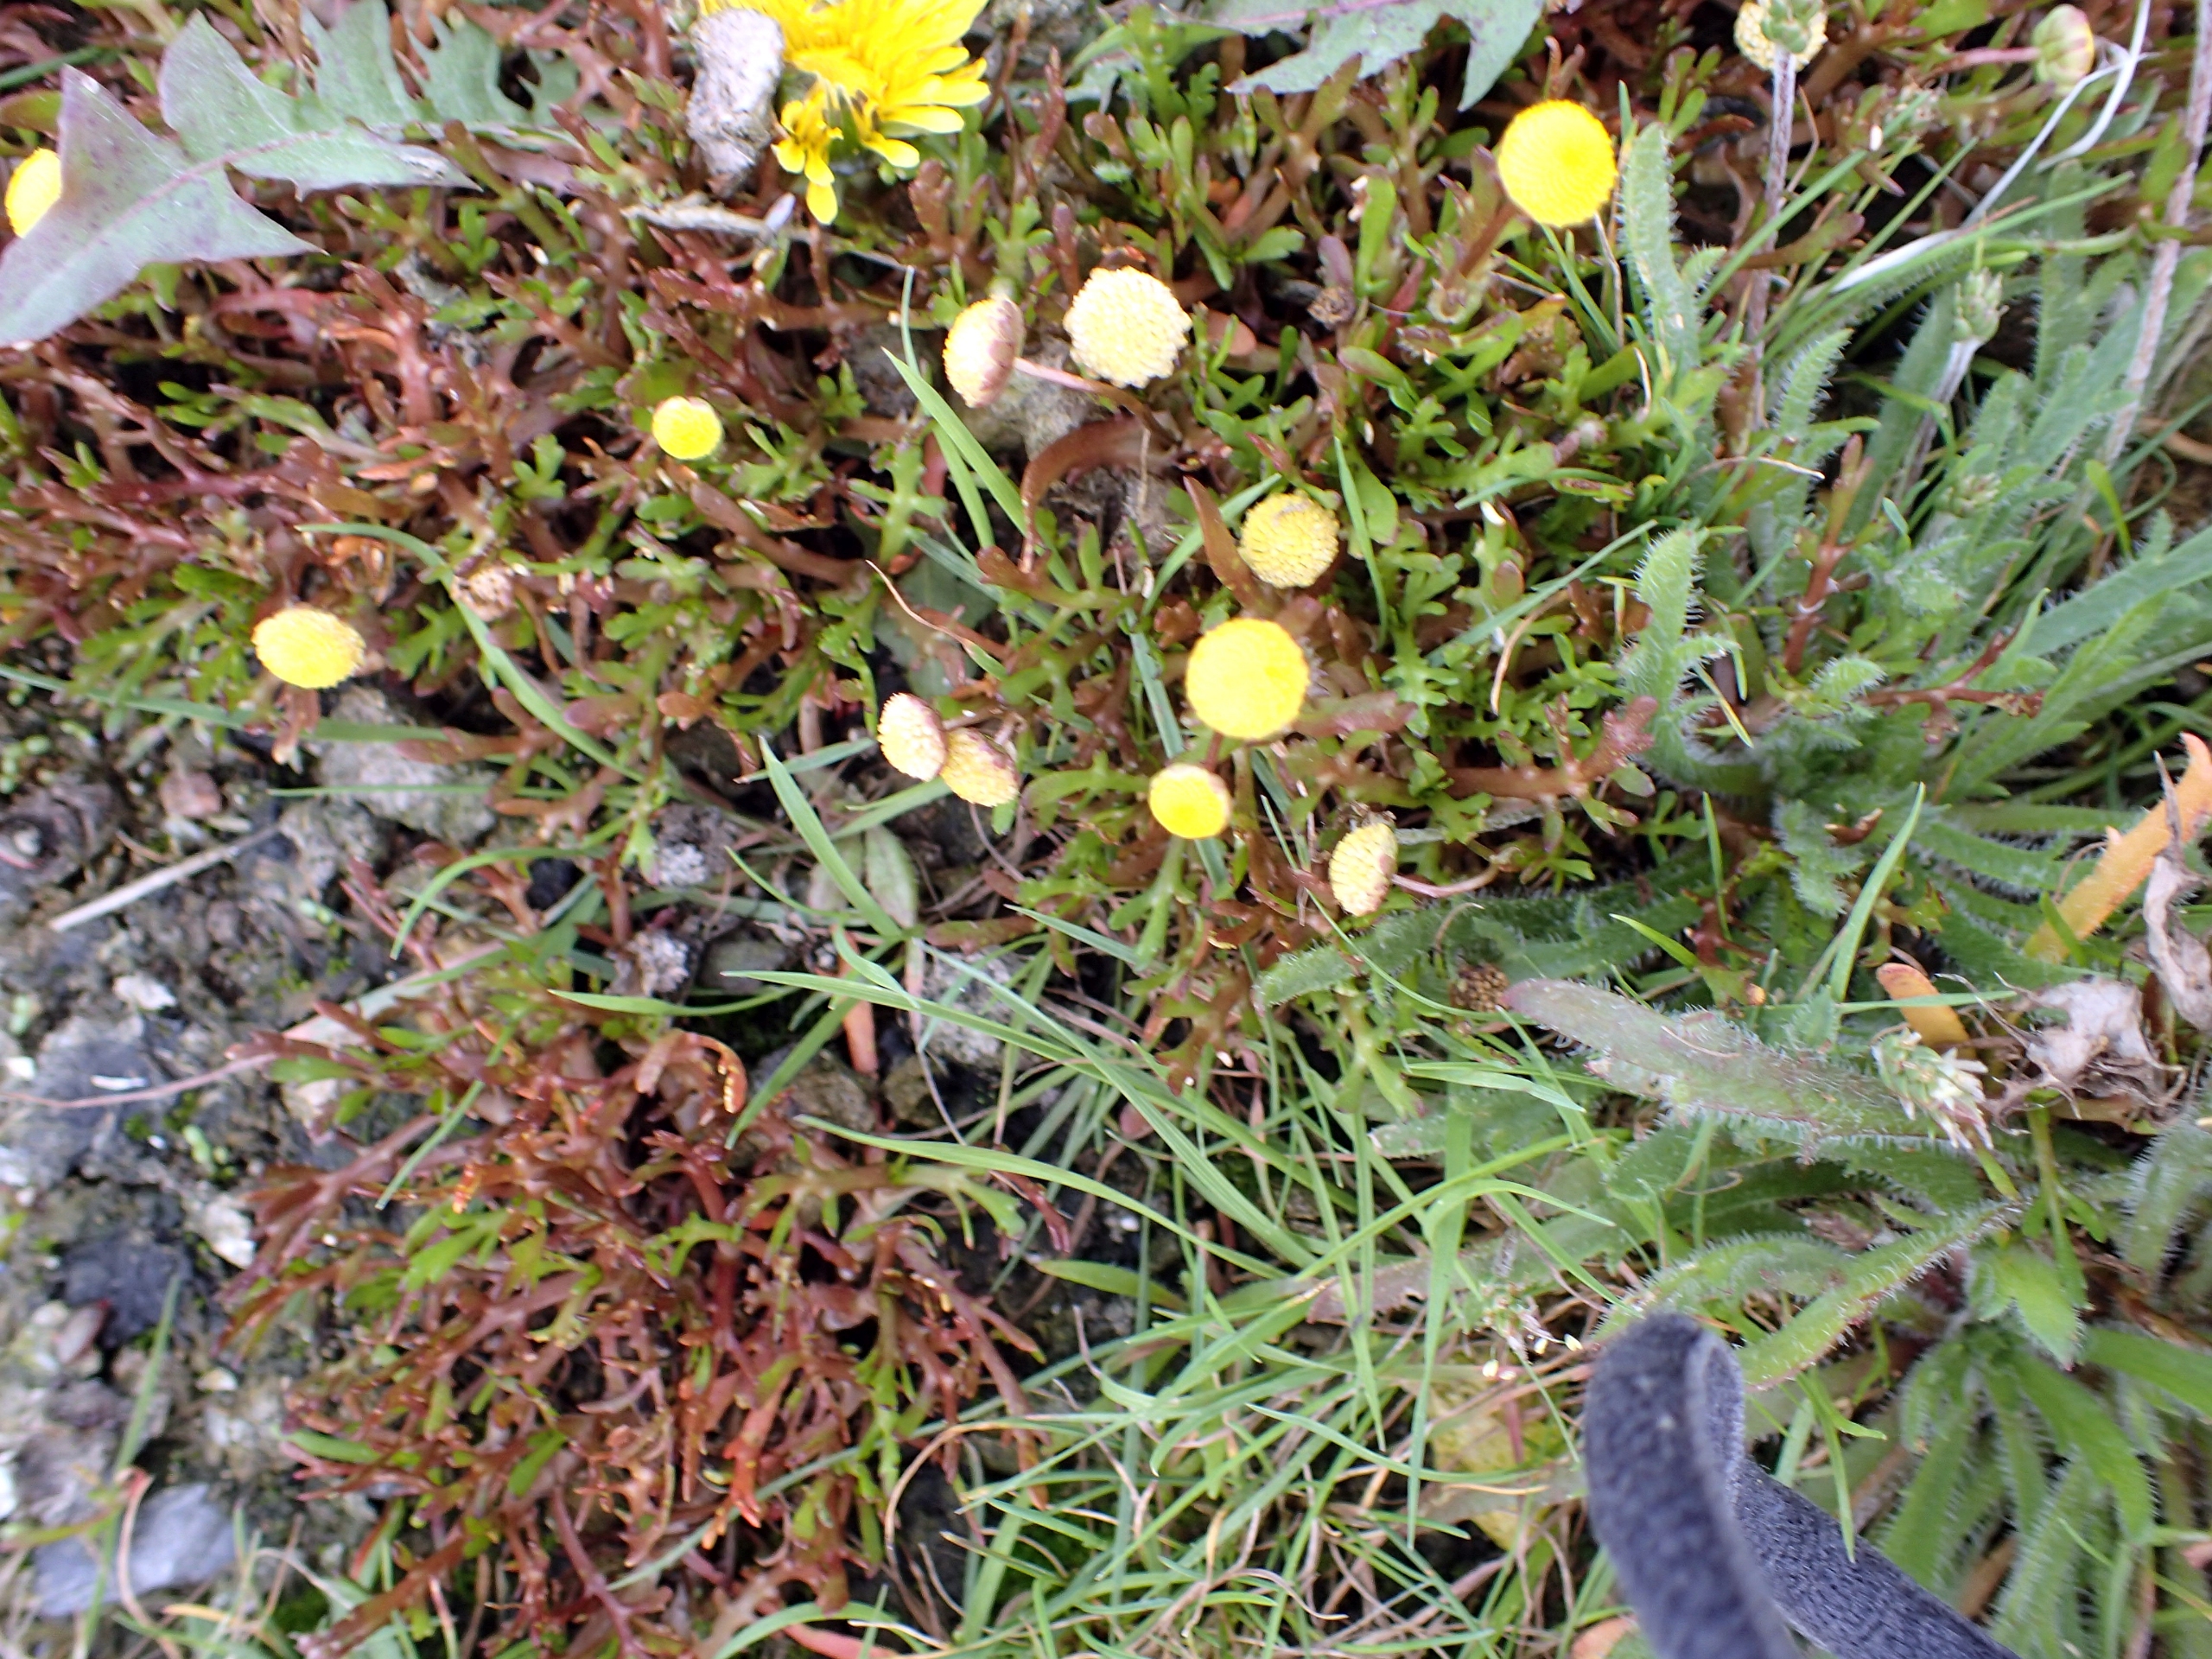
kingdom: Plantae
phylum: Tracheophyta
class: Magnoliopsida
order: Asterales
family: Asteraceae
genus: Cotula
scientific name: Cotula coronopifolia
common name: Firkløft
